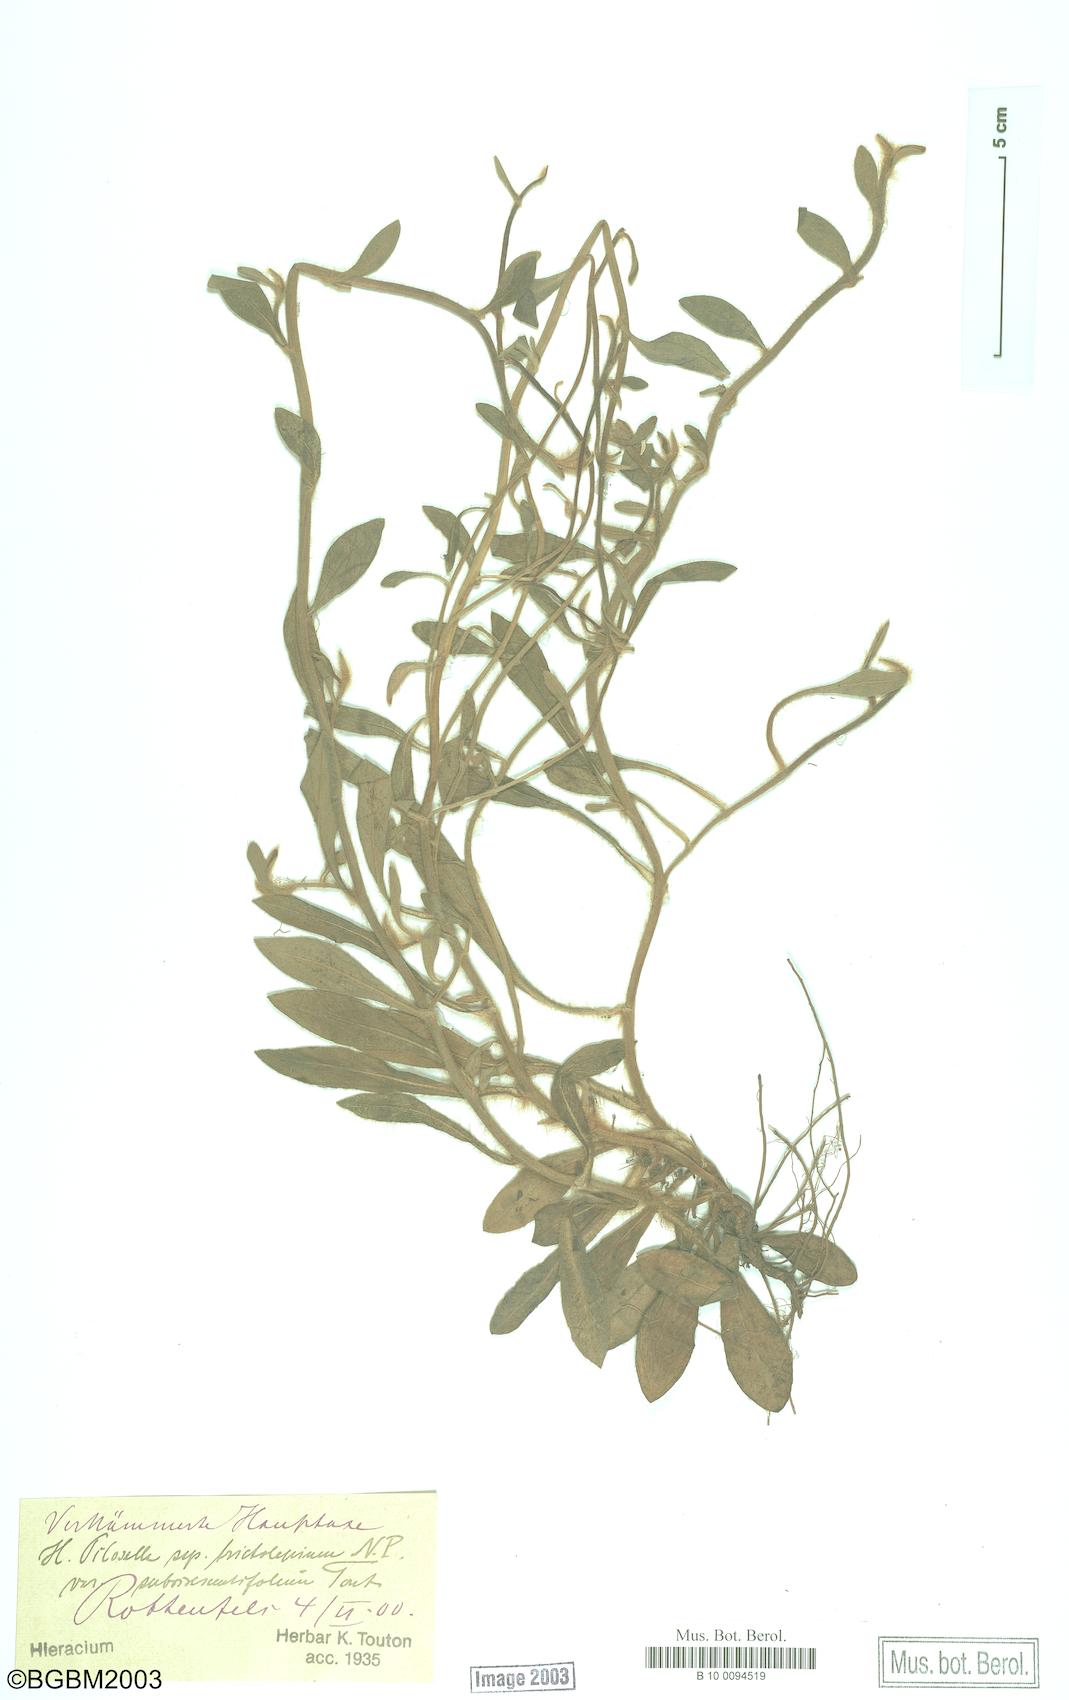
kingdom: Plantae
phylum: Tracheophyta
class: Magnoliopsida
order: Asterales
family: Asteraceae
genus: Pilosella
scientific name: Pilosella officinarum
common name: Mouse-ear hawkweed
